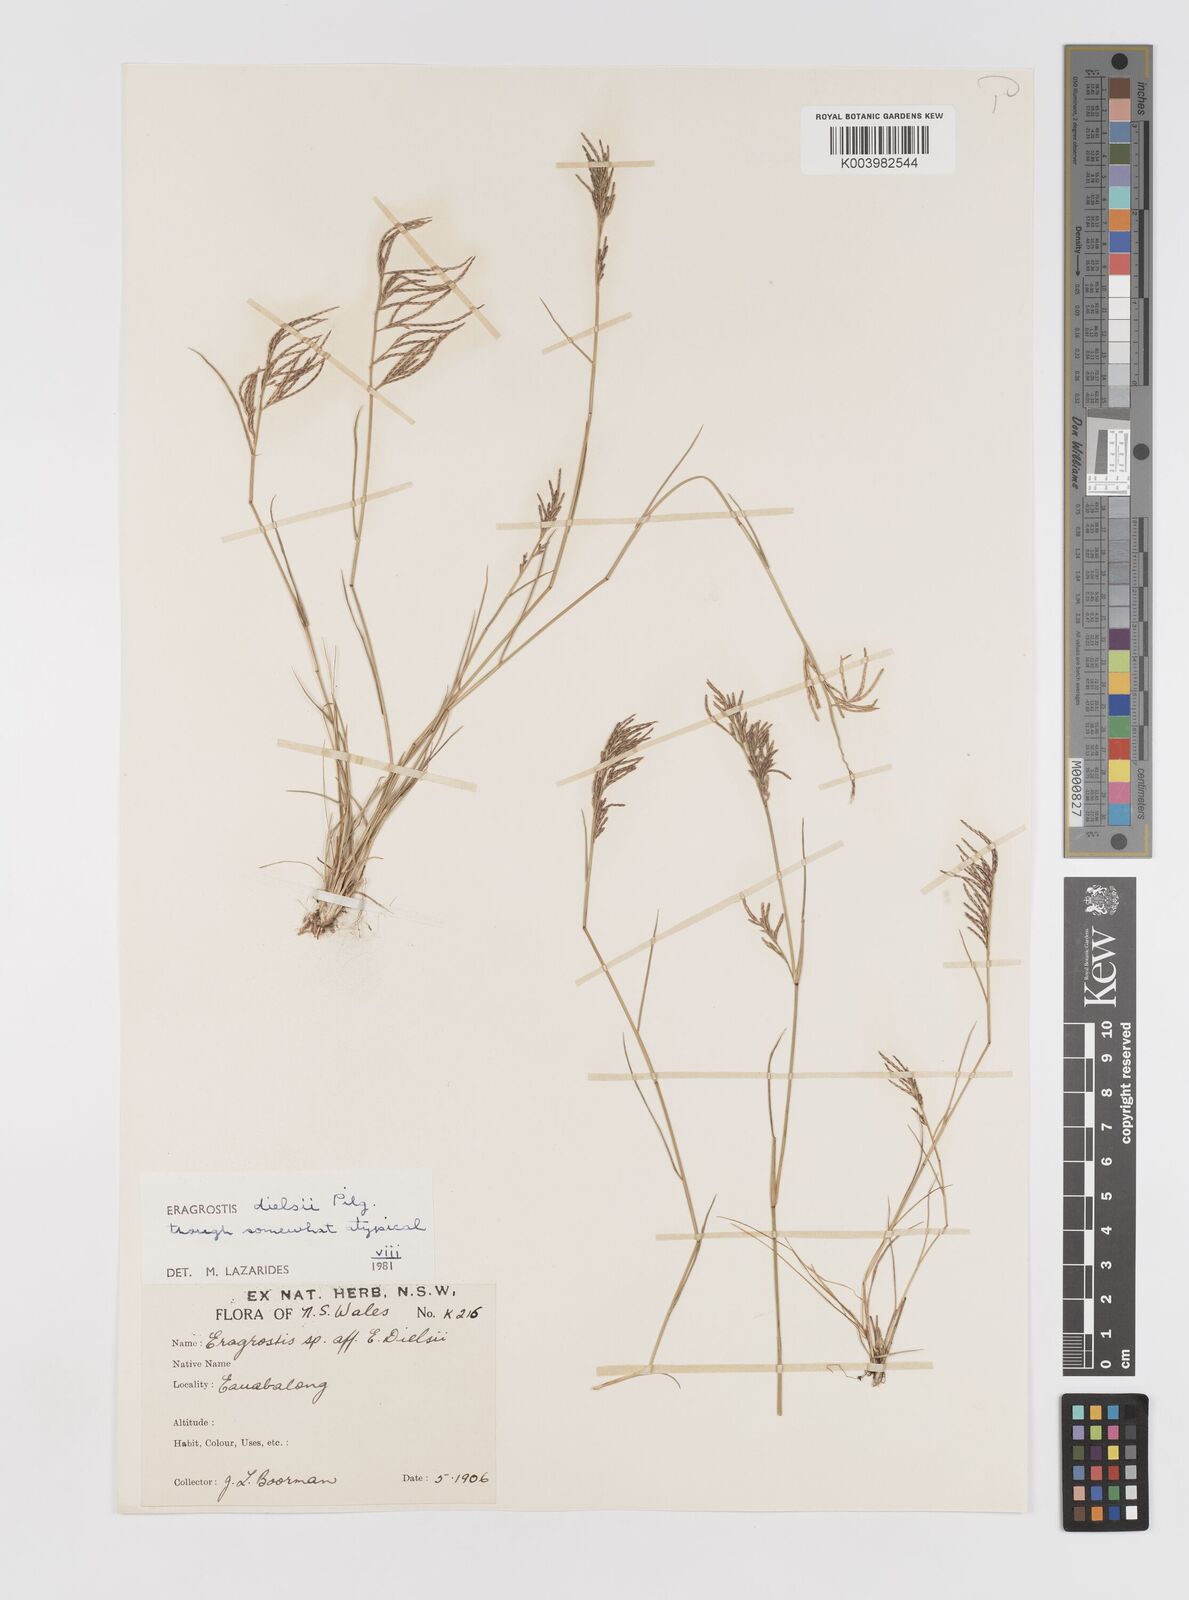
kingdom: Plantae
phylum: Tracheophyta
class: Liliopsida
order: Poales
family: Poaceae
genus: Eragrostis
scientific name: Eragrostis dielsii
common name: Lovegrass
